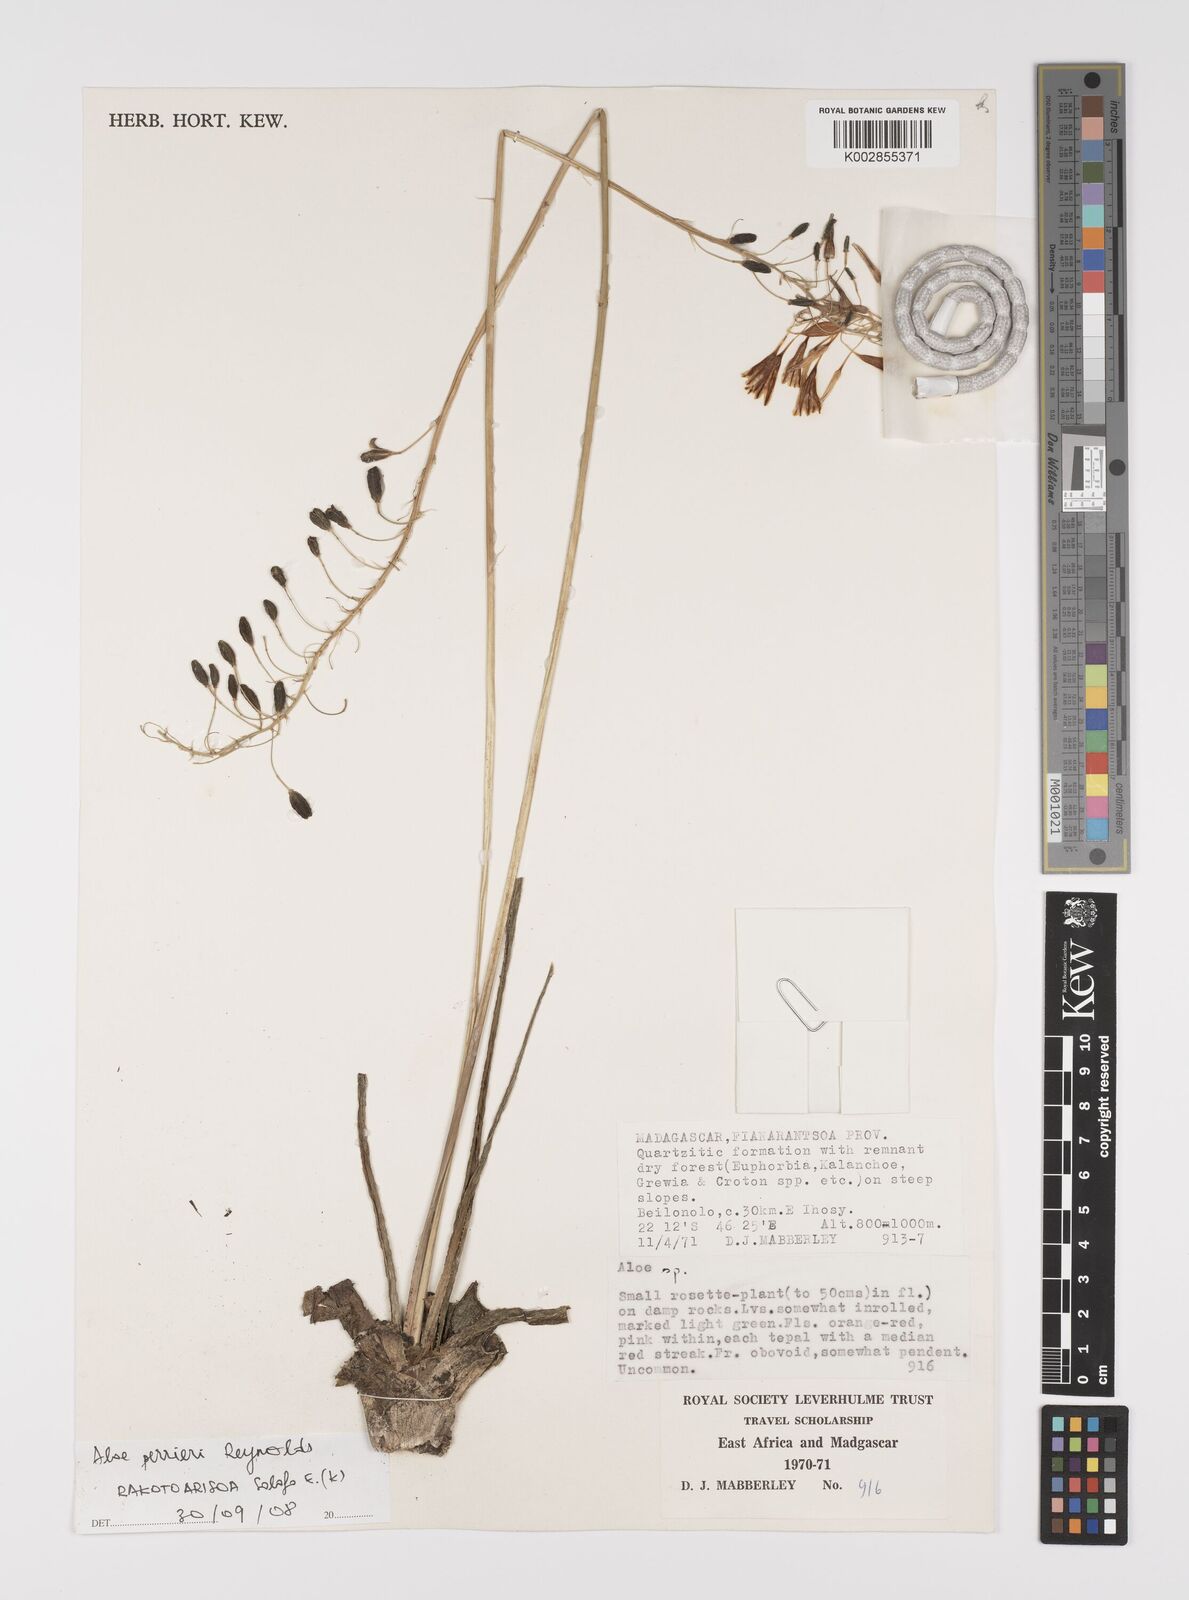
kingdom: Plantae
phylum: Tracheophyta
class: Liliopsida
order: Asparagales
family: Asphodelaceae
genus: Aloe
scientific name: Aloe perrieri
